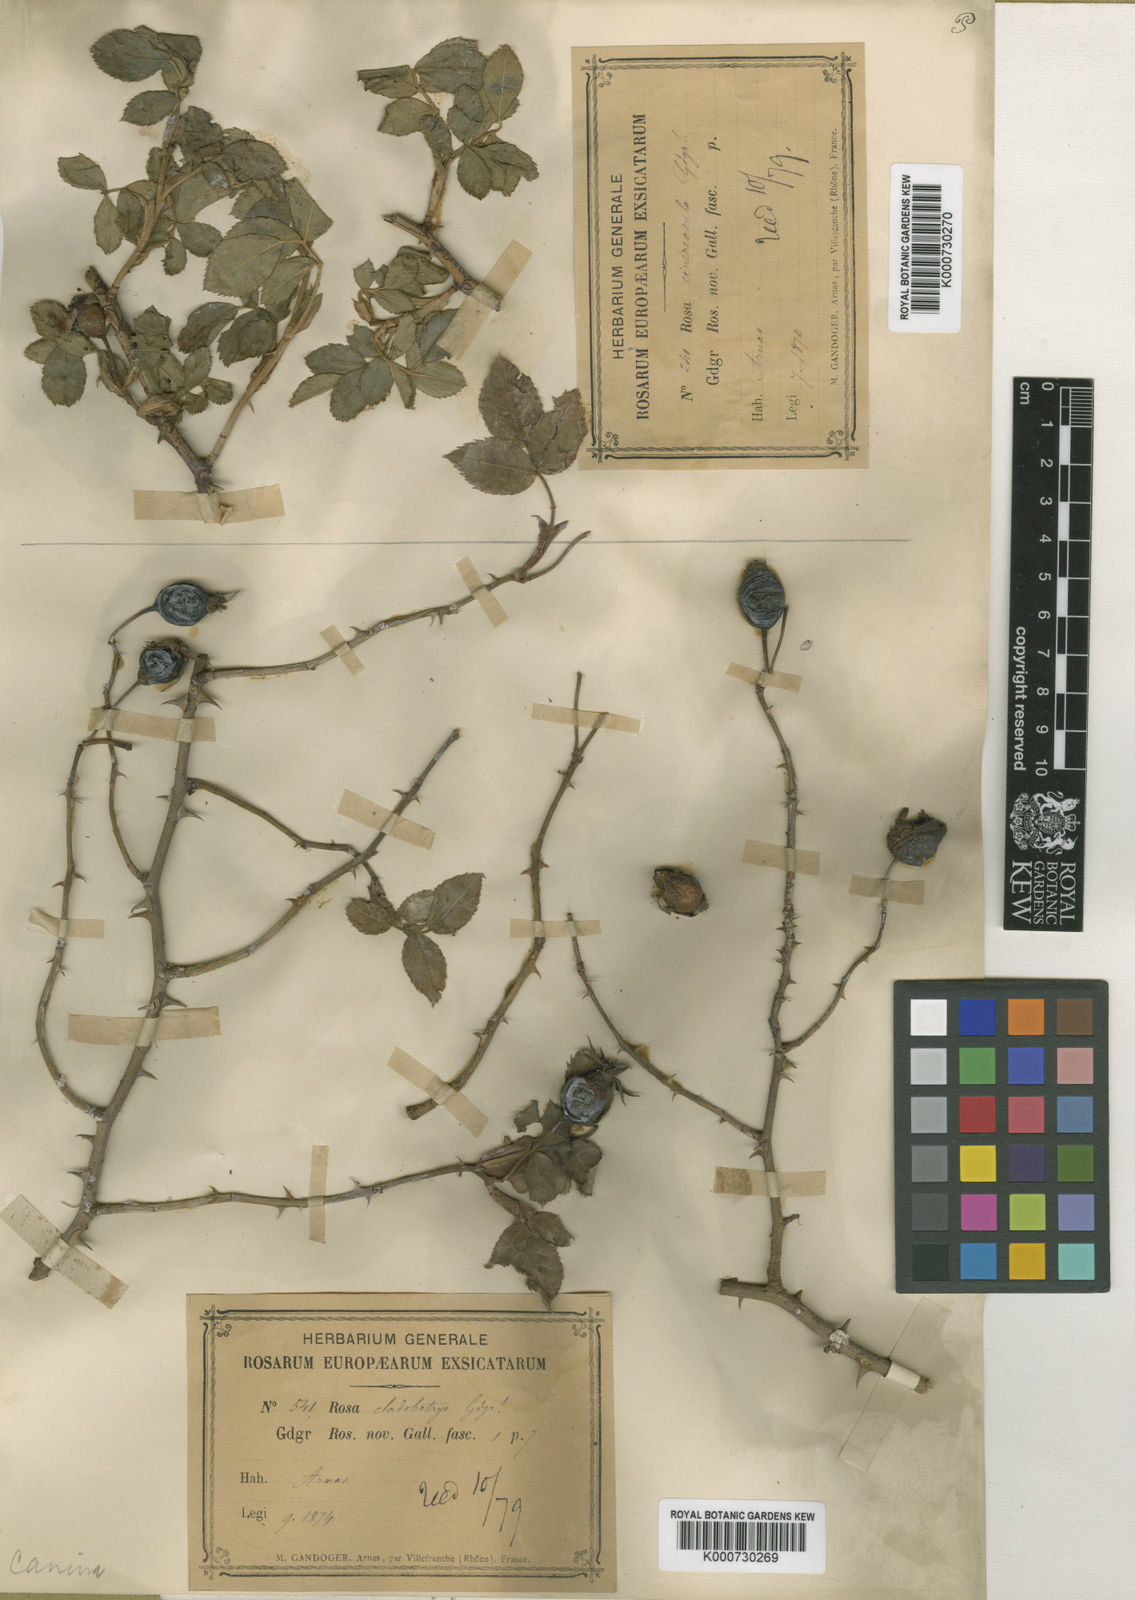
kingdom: Plantae
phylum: Tracheophyta
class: Magnoliopsida
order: Rosales
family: Rosaceae
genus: Rosa
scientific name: Rosa canina
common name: Dog rose
